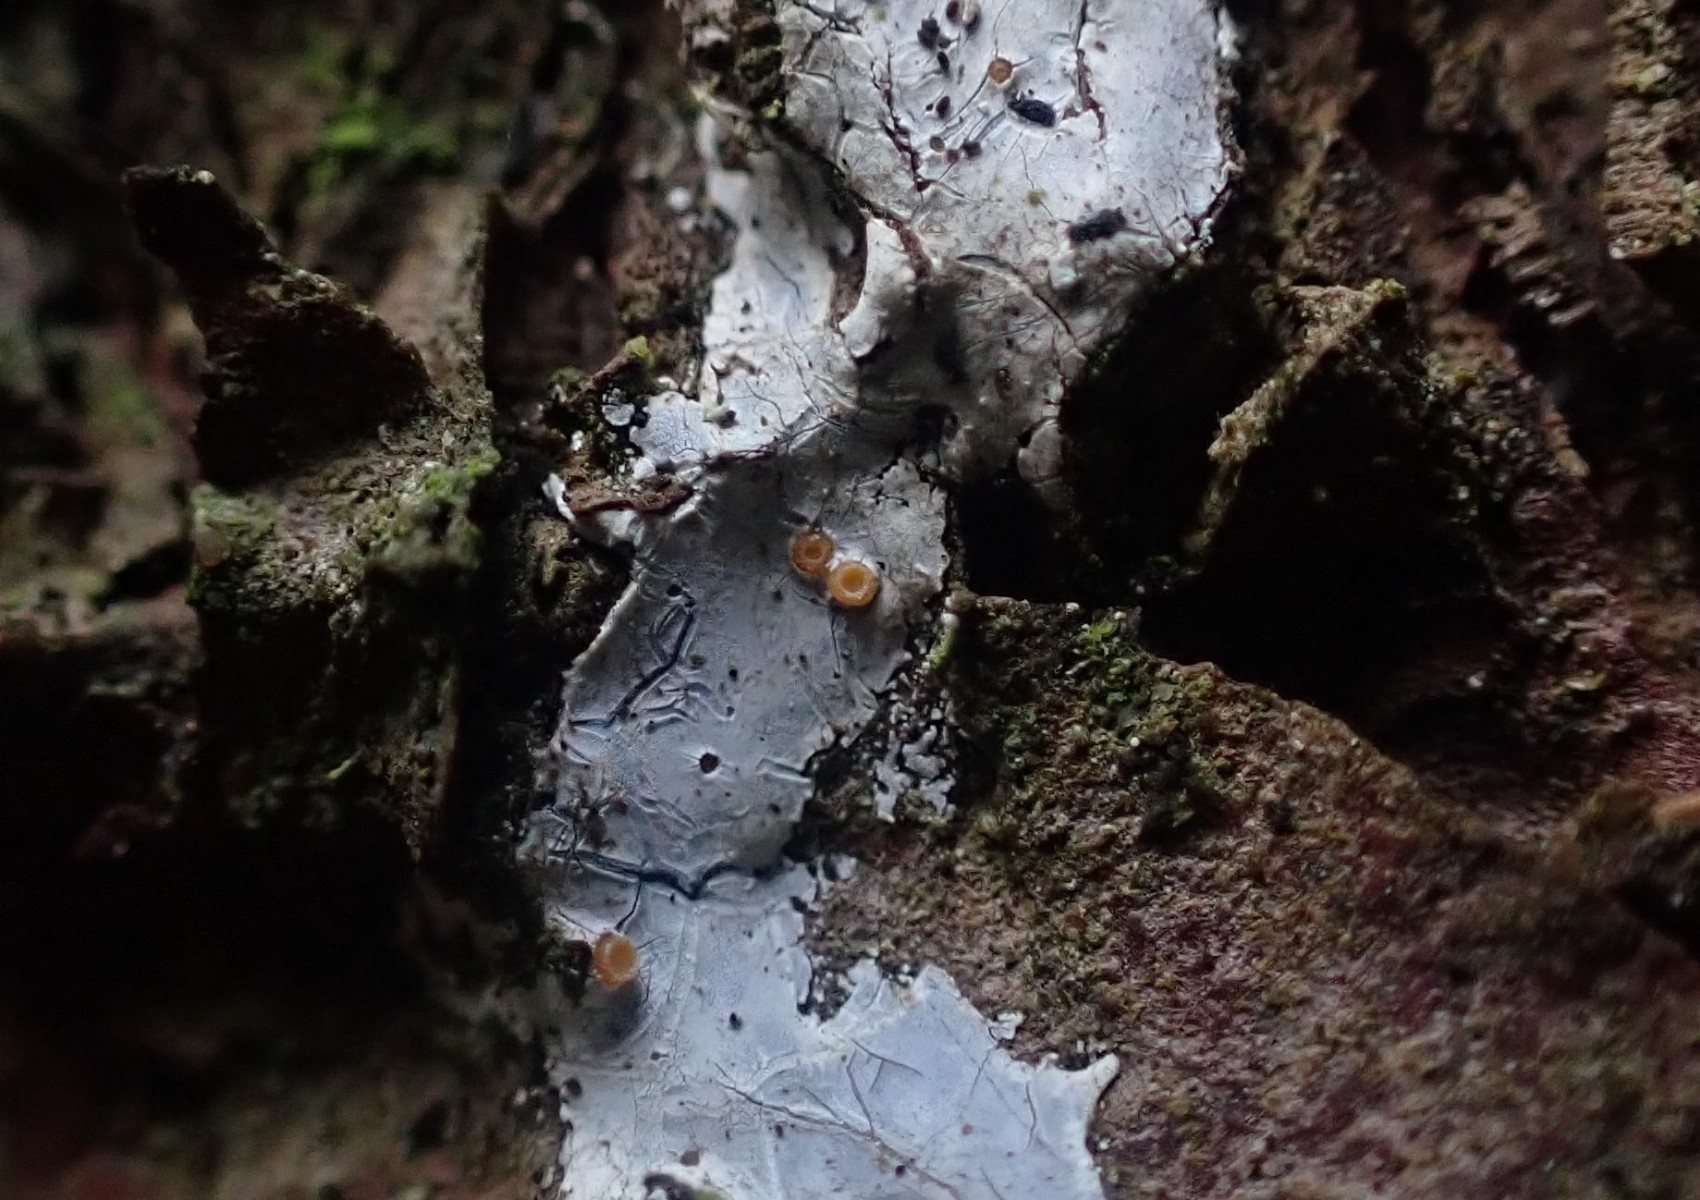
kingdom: Fungi
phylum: Ascomycota
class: Sareomycetes
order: Sareales
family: Sareaceae
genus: Sarea
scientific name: Sarea resinae
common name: orangegul harpiksskive
